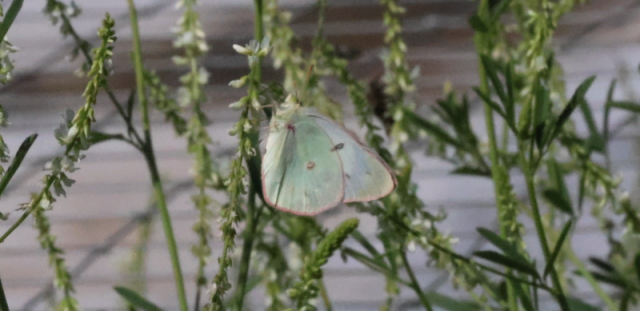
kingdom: Animalia
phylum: Arthropoda
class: Insecta
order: Lepidoptera
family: Pieridae
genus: Colias
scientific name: Colias philodice
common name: Clouded Sulphur
